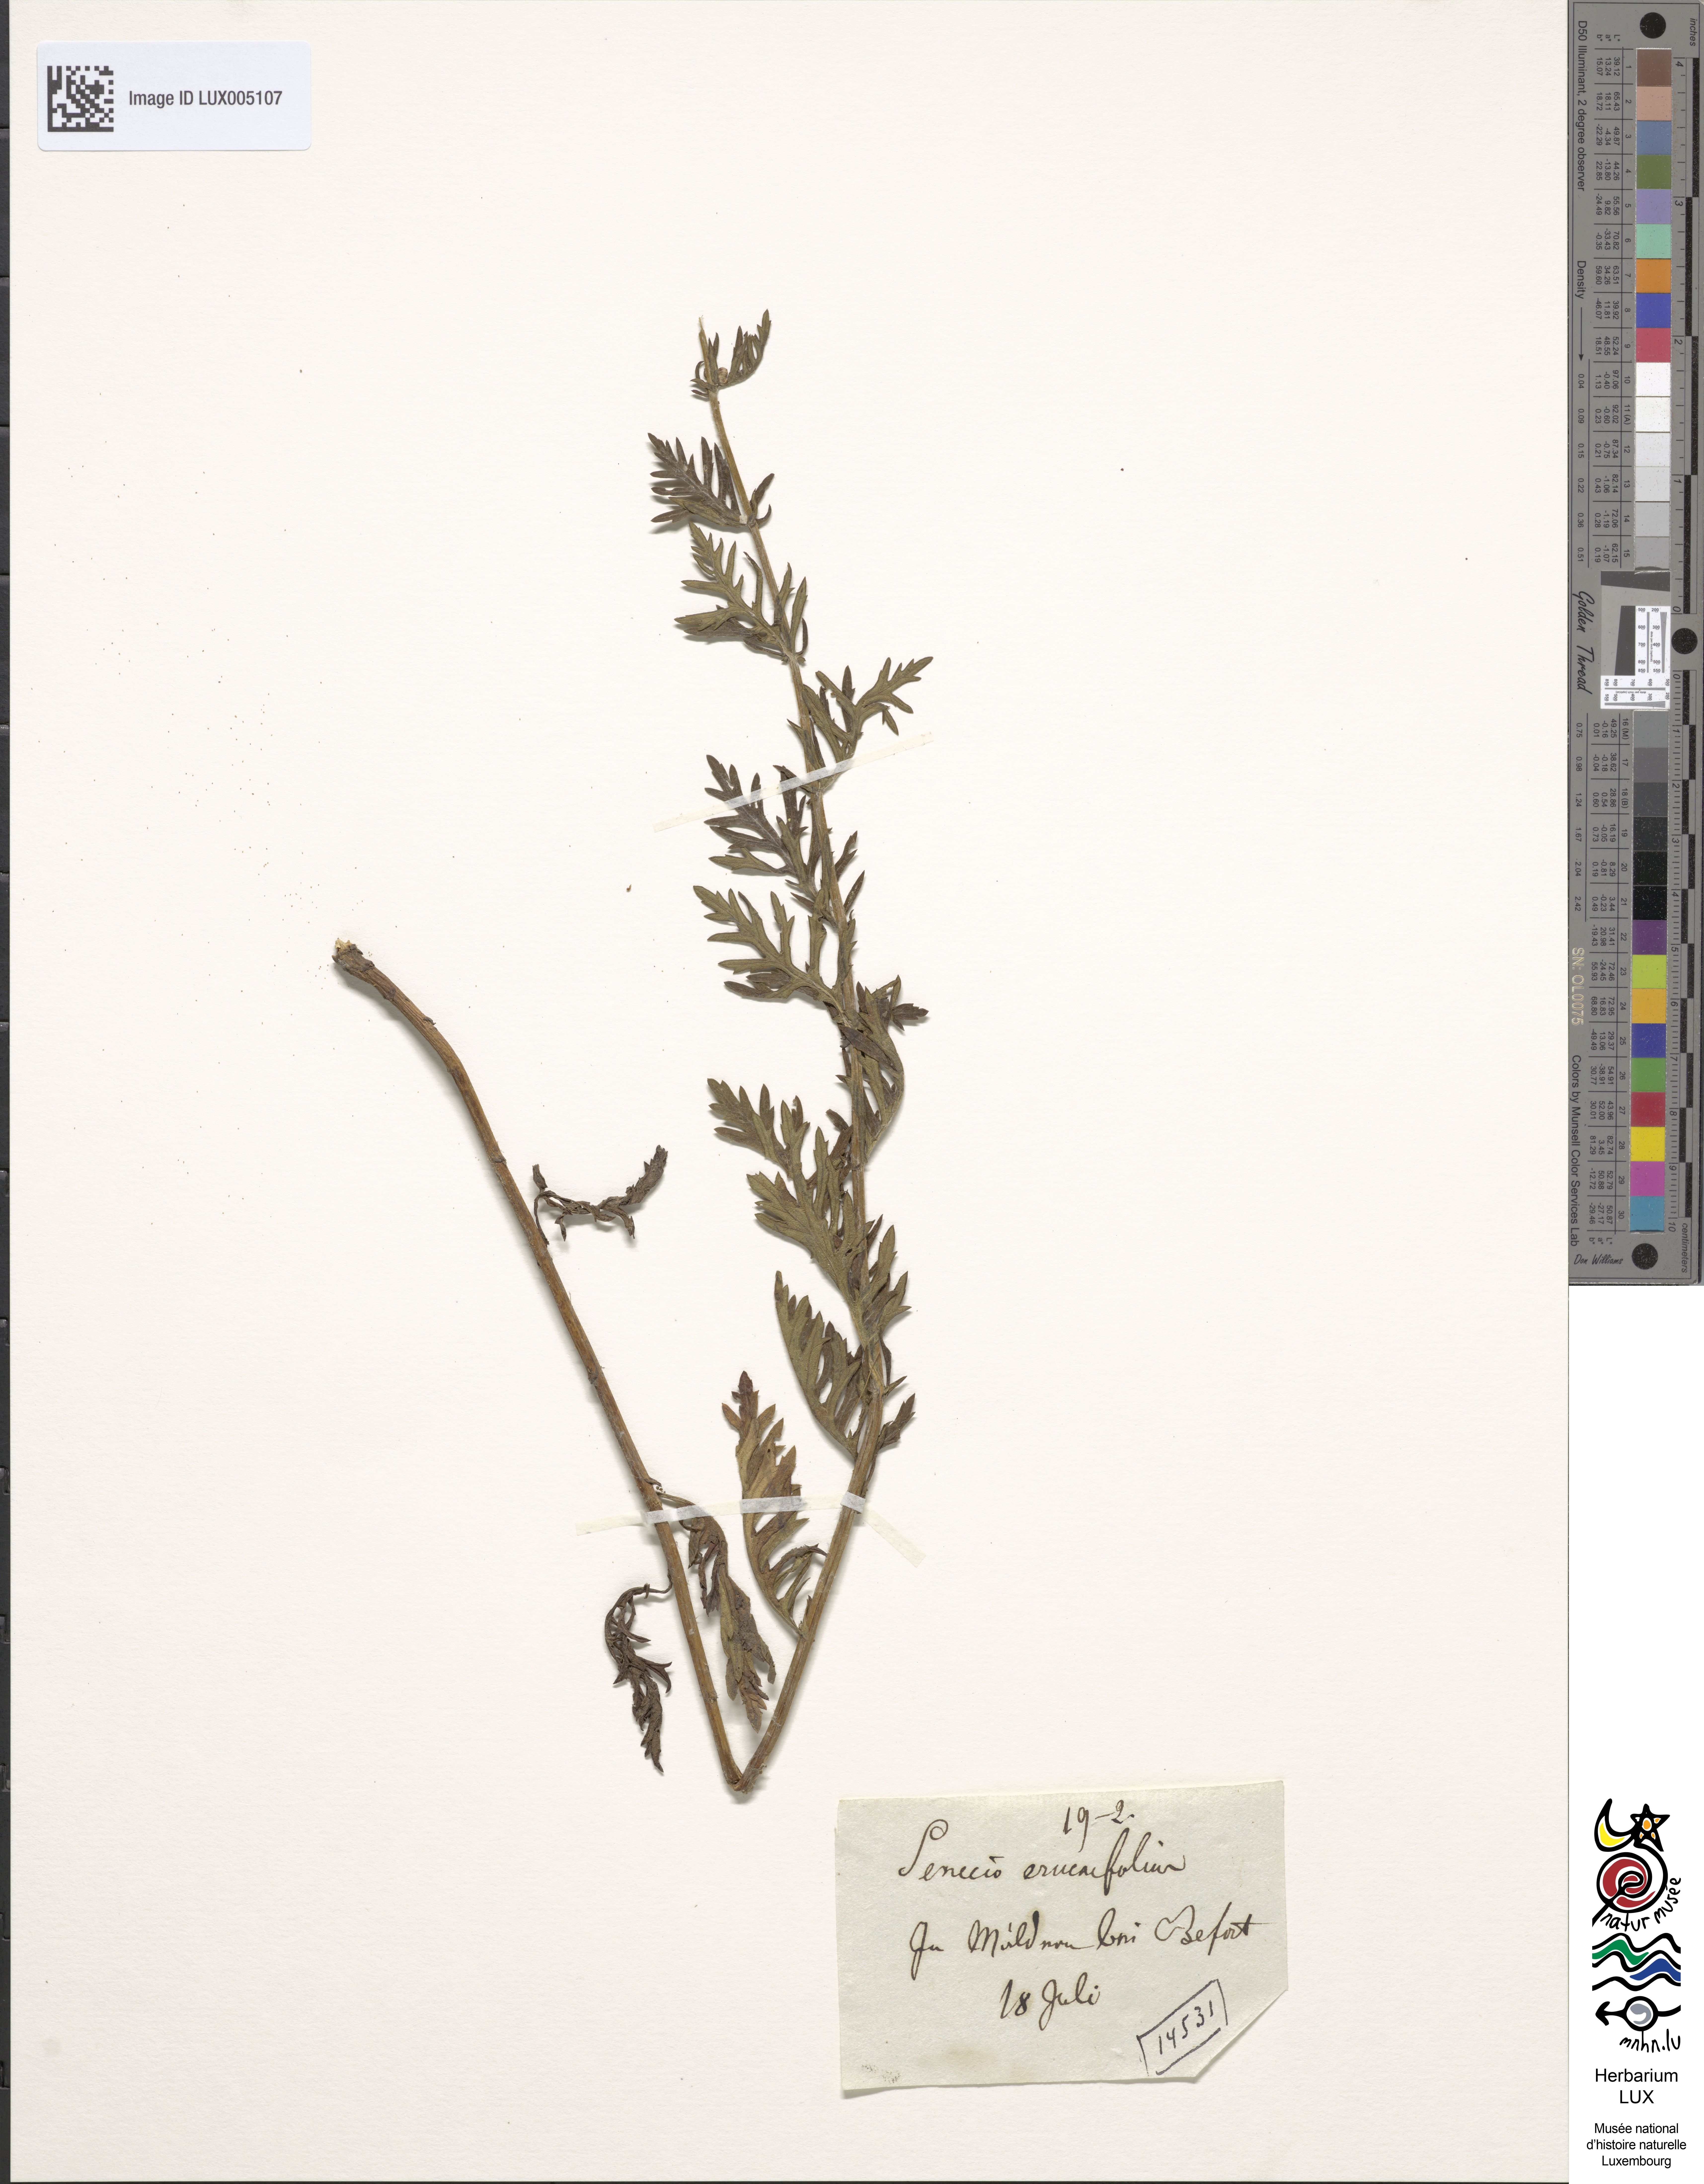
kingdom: Plantae
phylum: Tracheophyta
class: Magnoliopsida
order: Asterales
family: Asteraceae
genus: Jacobaea
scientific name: Jacobaea erucifolia
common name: Hoary ragwort
